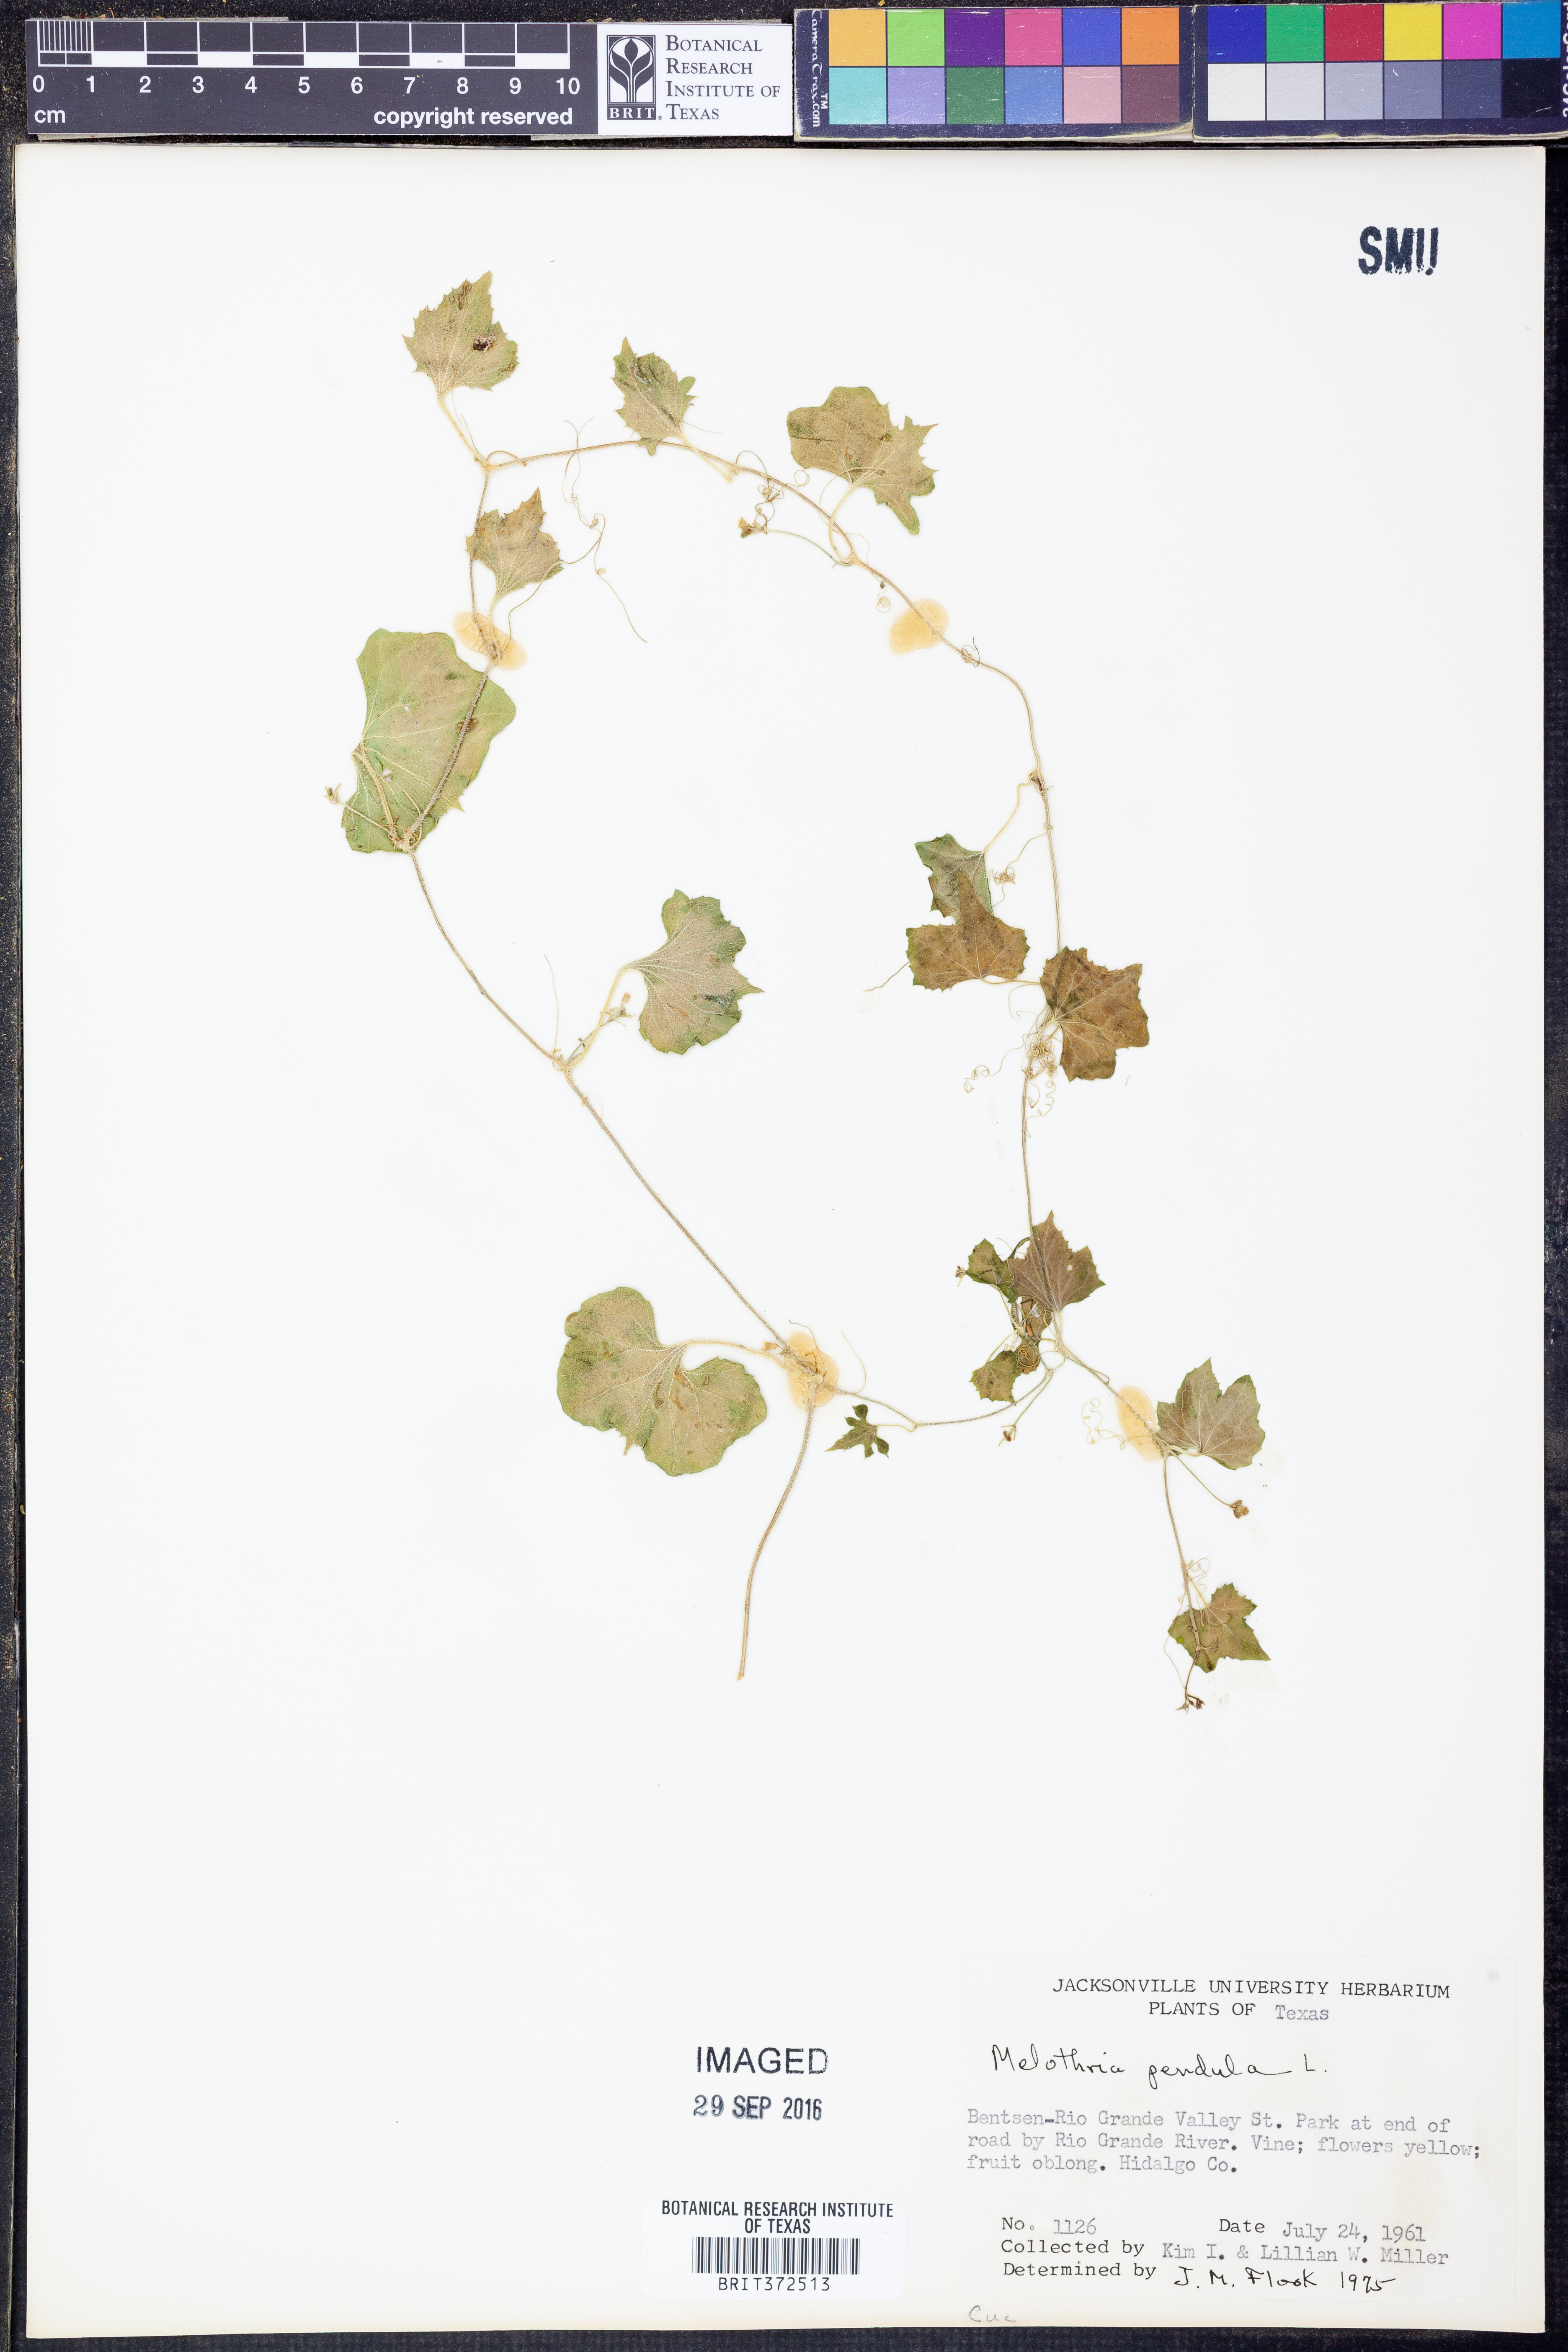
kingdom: Plantae
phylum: Tracheophyta
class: Magnoliopsida
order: Cucurbitales
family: Cucurbitaceae
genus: Melothria
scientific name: Melothria pendula
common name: Creeping-cucumber
